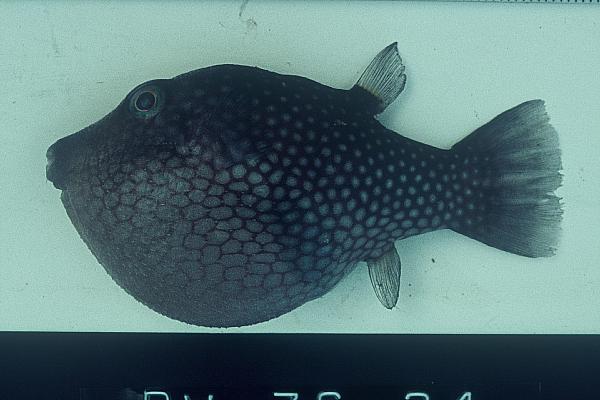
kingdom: Animalia
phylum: Chordata
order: Tetraodontiformes
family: Tetraodontidae
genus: Canthigaster
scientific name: Canthigaster janthinoptera
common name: Honeycomb toby
